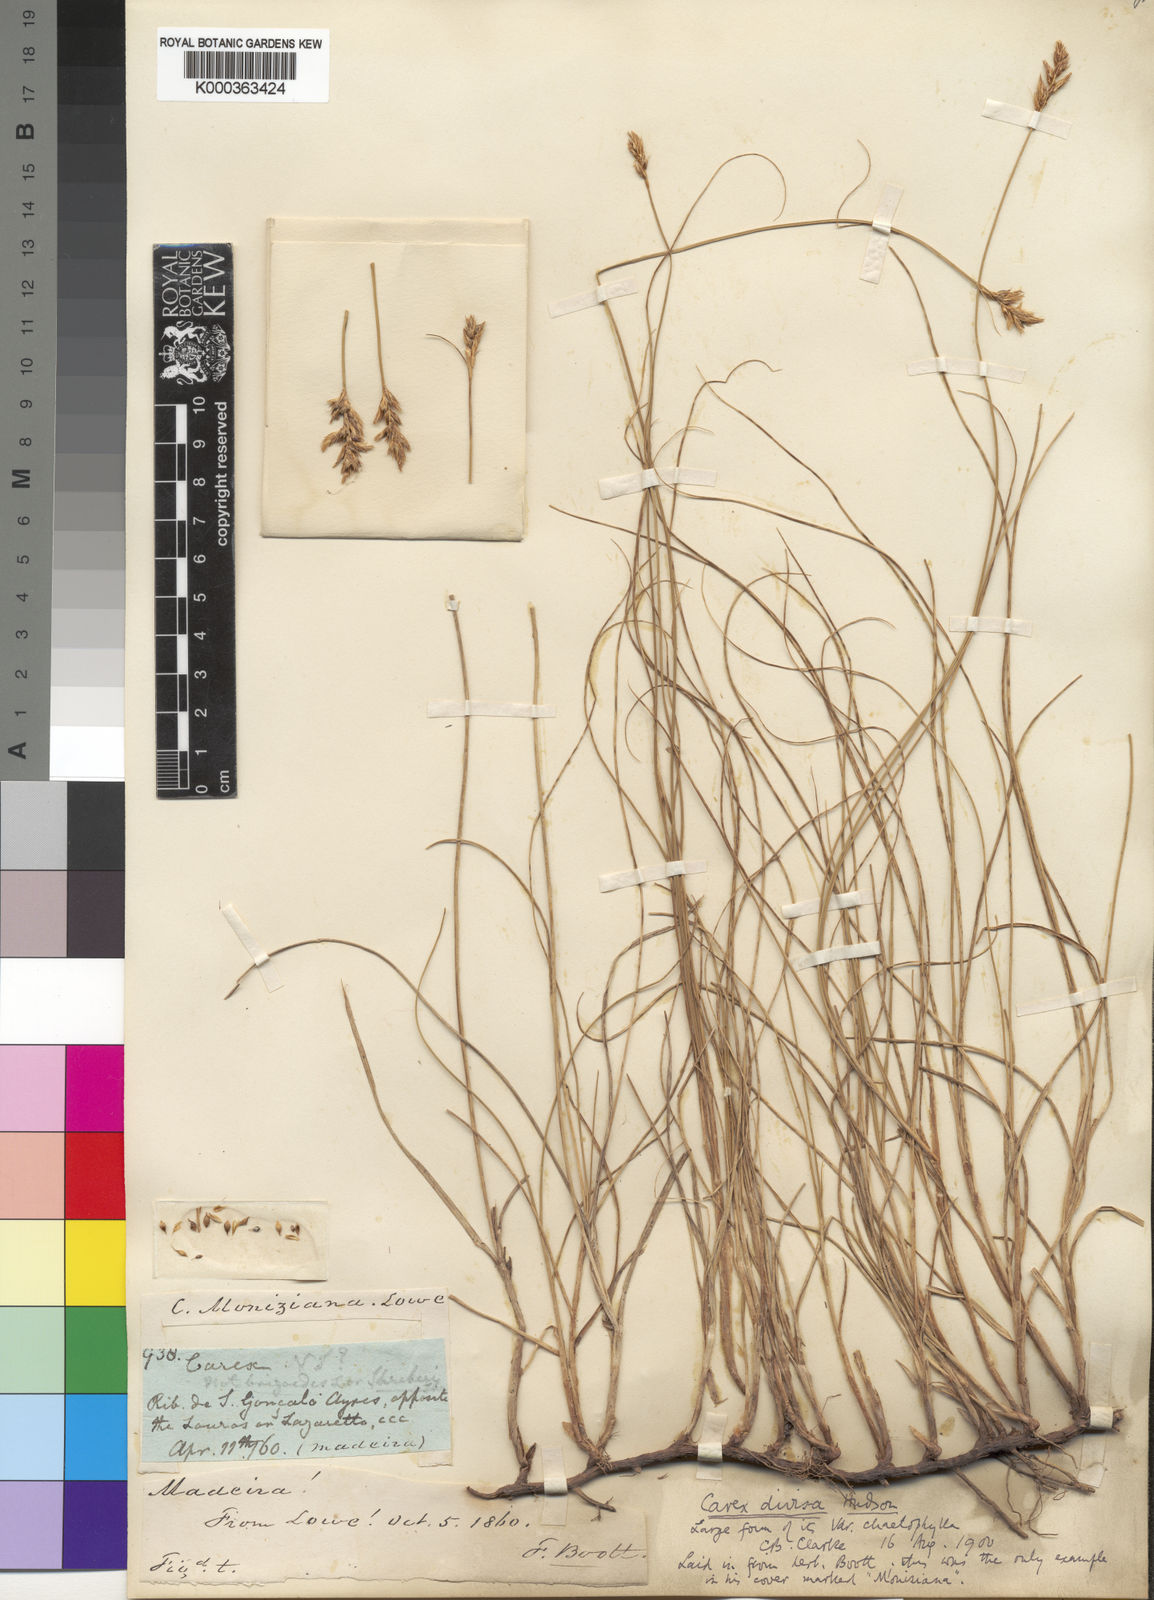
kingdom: Plantae
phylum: Tracheophyta
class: Liliopsida
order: Poales
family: Cyperaceae
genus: Carex
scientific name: Carex
